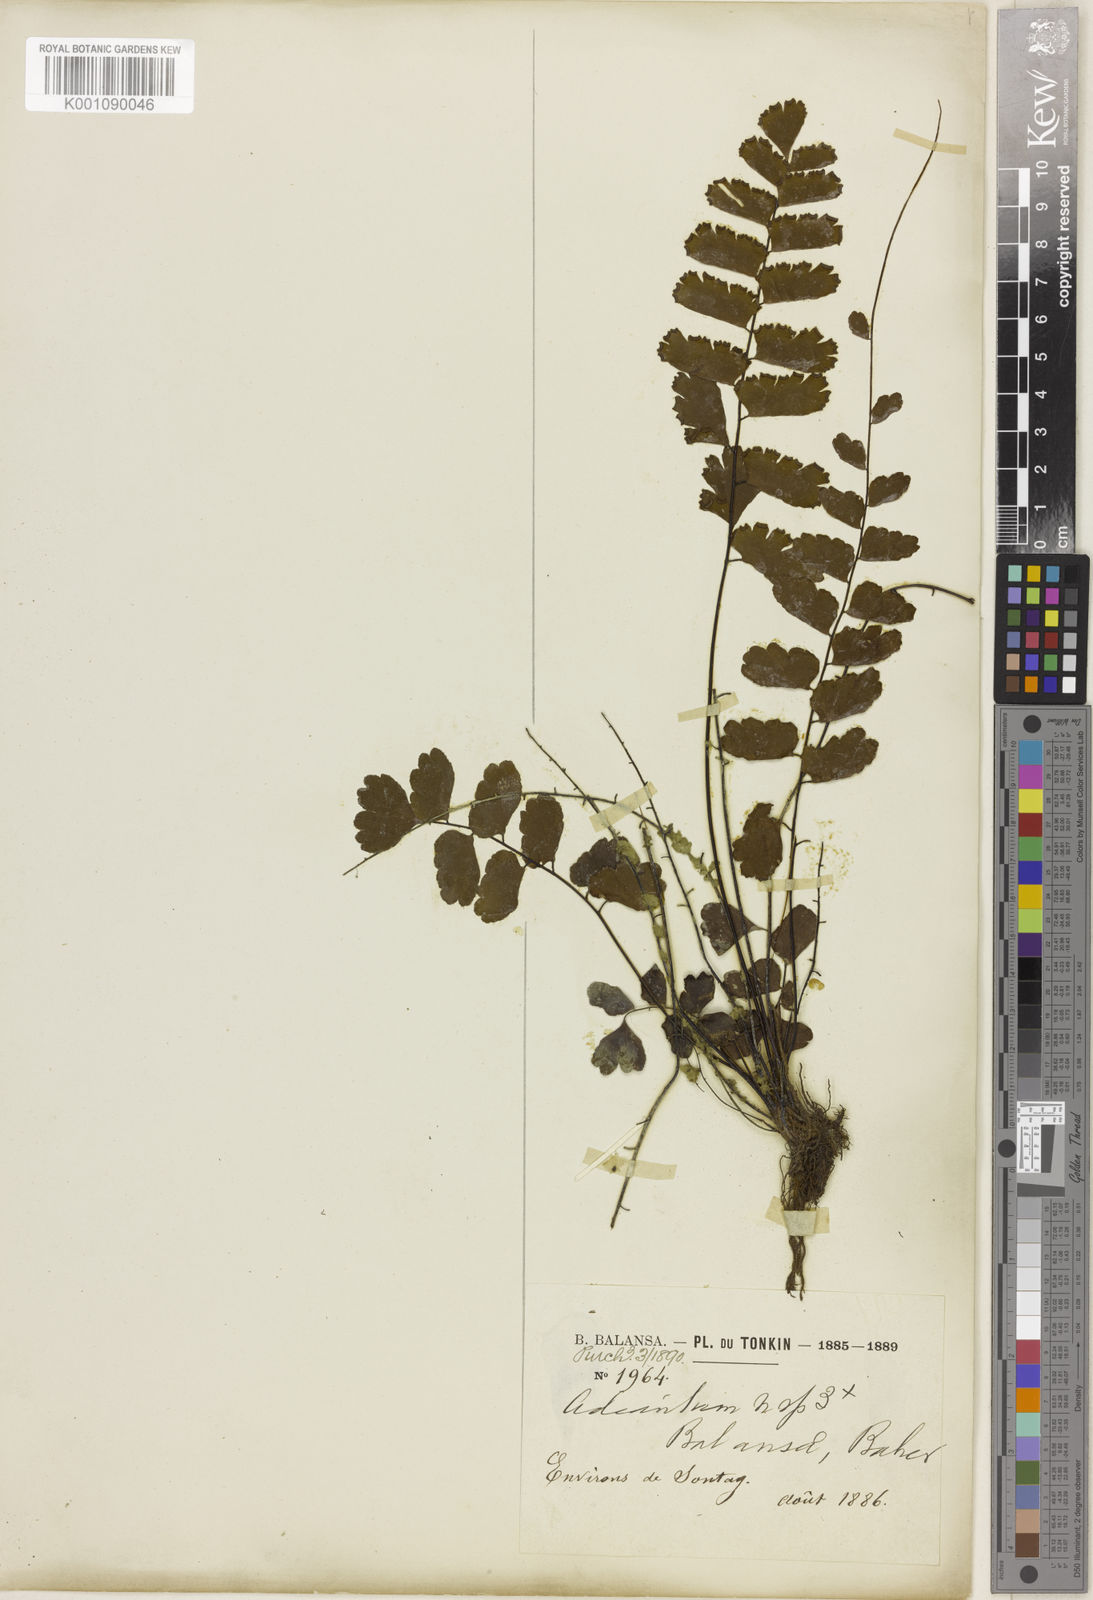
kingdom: Plantae
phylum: Tracheophyta
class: Polypodiopsida
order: Polypodiales
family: Pteridaceae
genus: Adiantum
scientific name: Adiantum soboliferum
